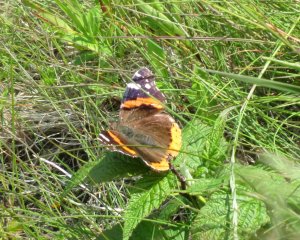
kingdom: Animalia
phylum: Arthropoda
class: Insecta
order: Lepidoptera
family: Nymphalidae
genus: Vanessa
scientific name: Vanessa atalanta
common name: Red Admiral
